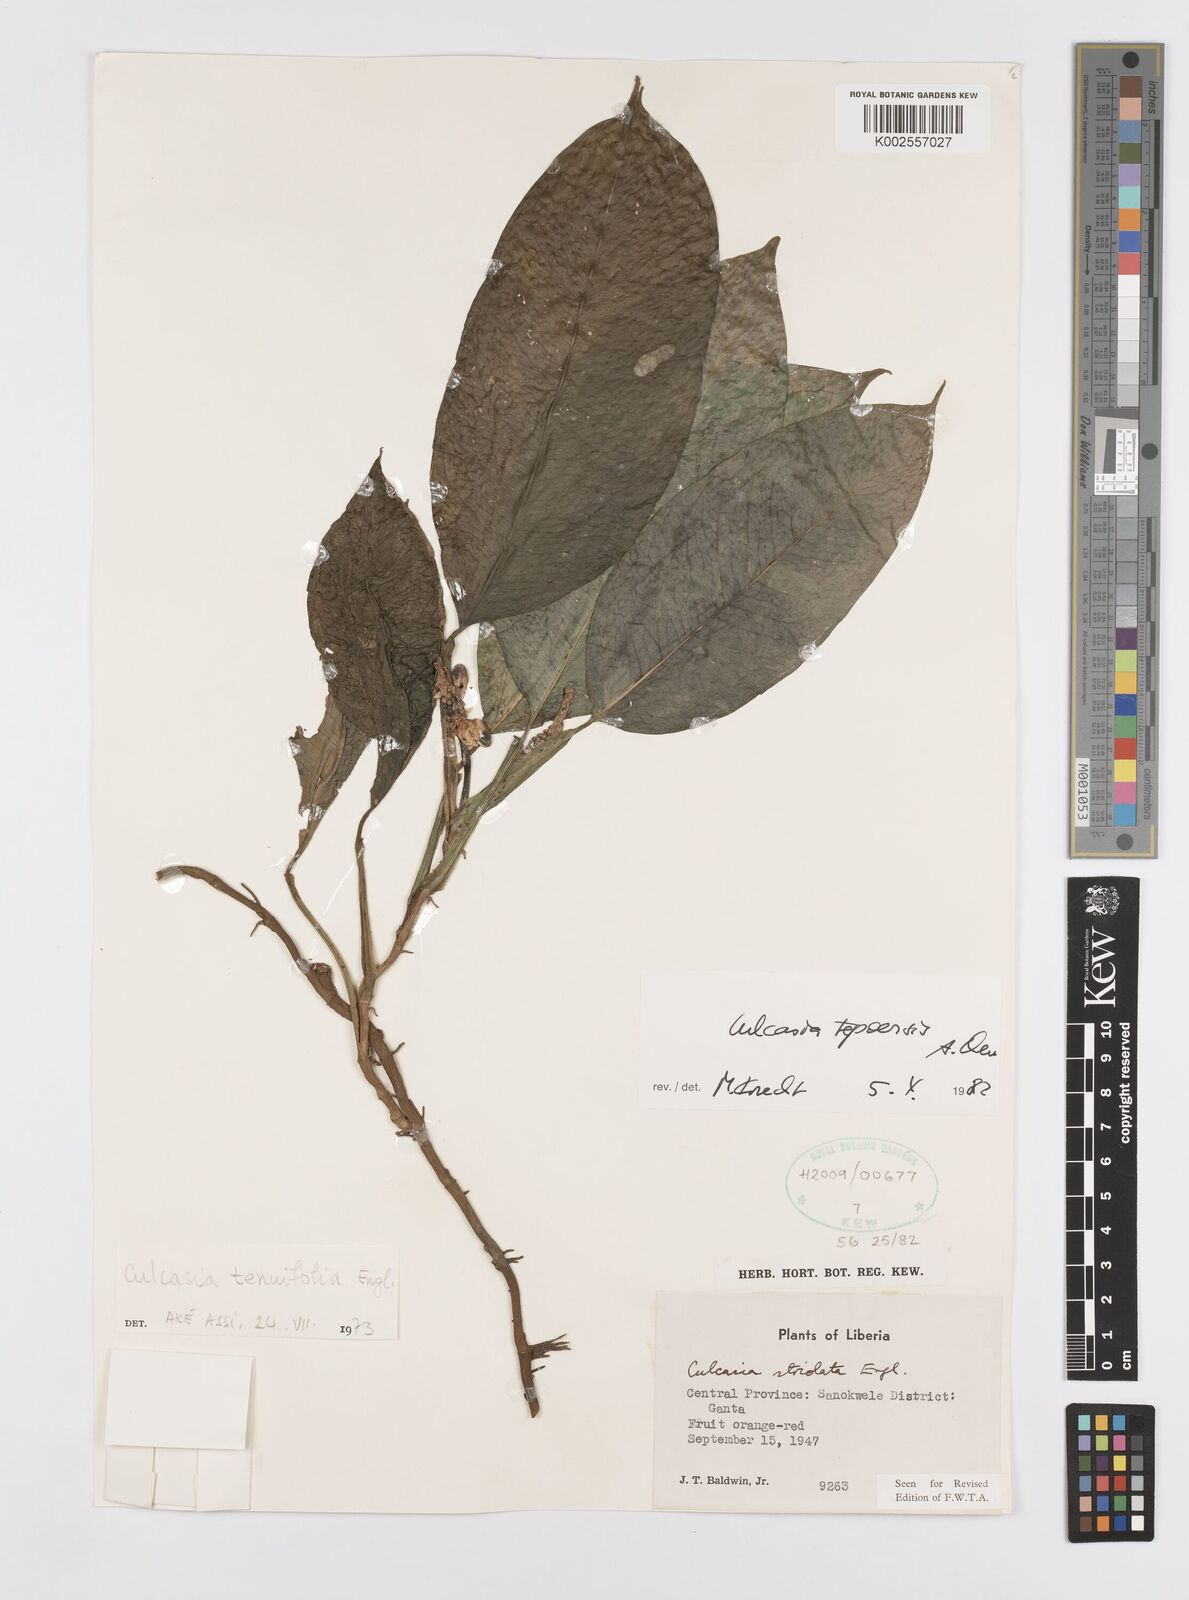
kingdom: Plantae
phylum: Tracheophyta
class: Liliopsida
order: Alismatales
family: Araceae
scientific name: Araceae
